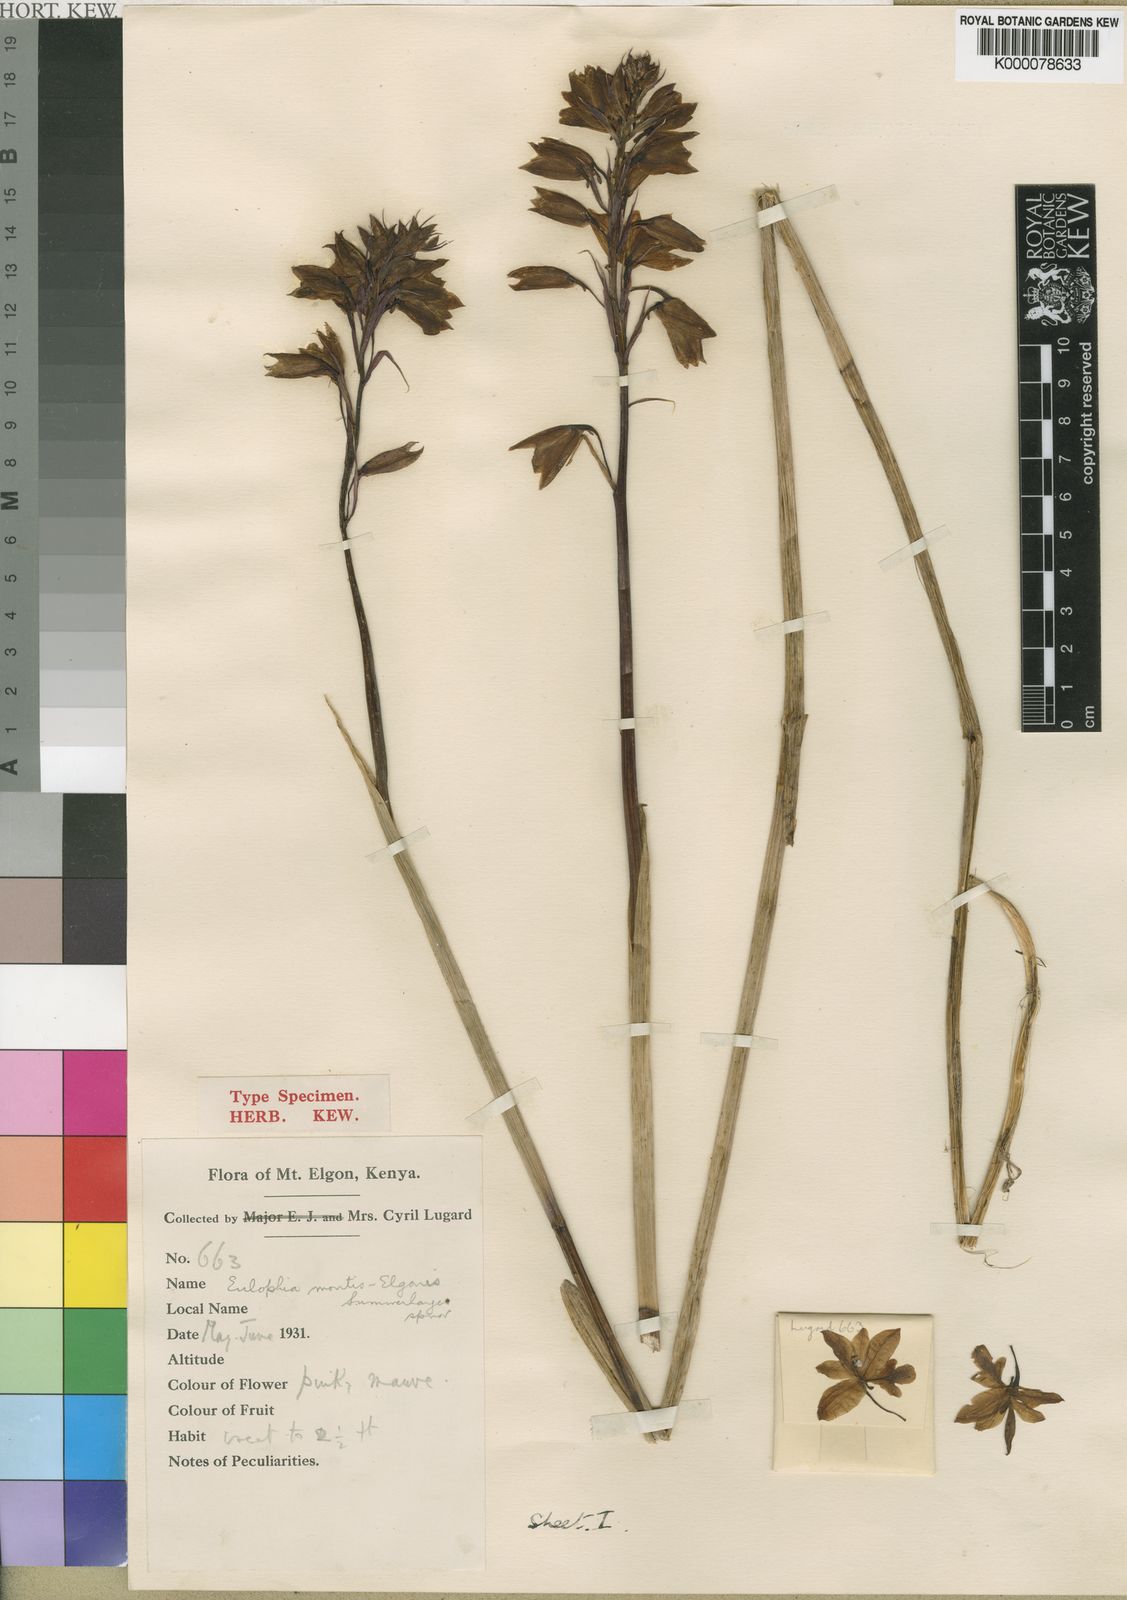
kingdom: Plantae
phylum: Tracheophyta
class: Liliopsida
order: Asparagales
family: Orchidaceae
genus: Eulophia
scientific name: Eulophia montis-elgonis
